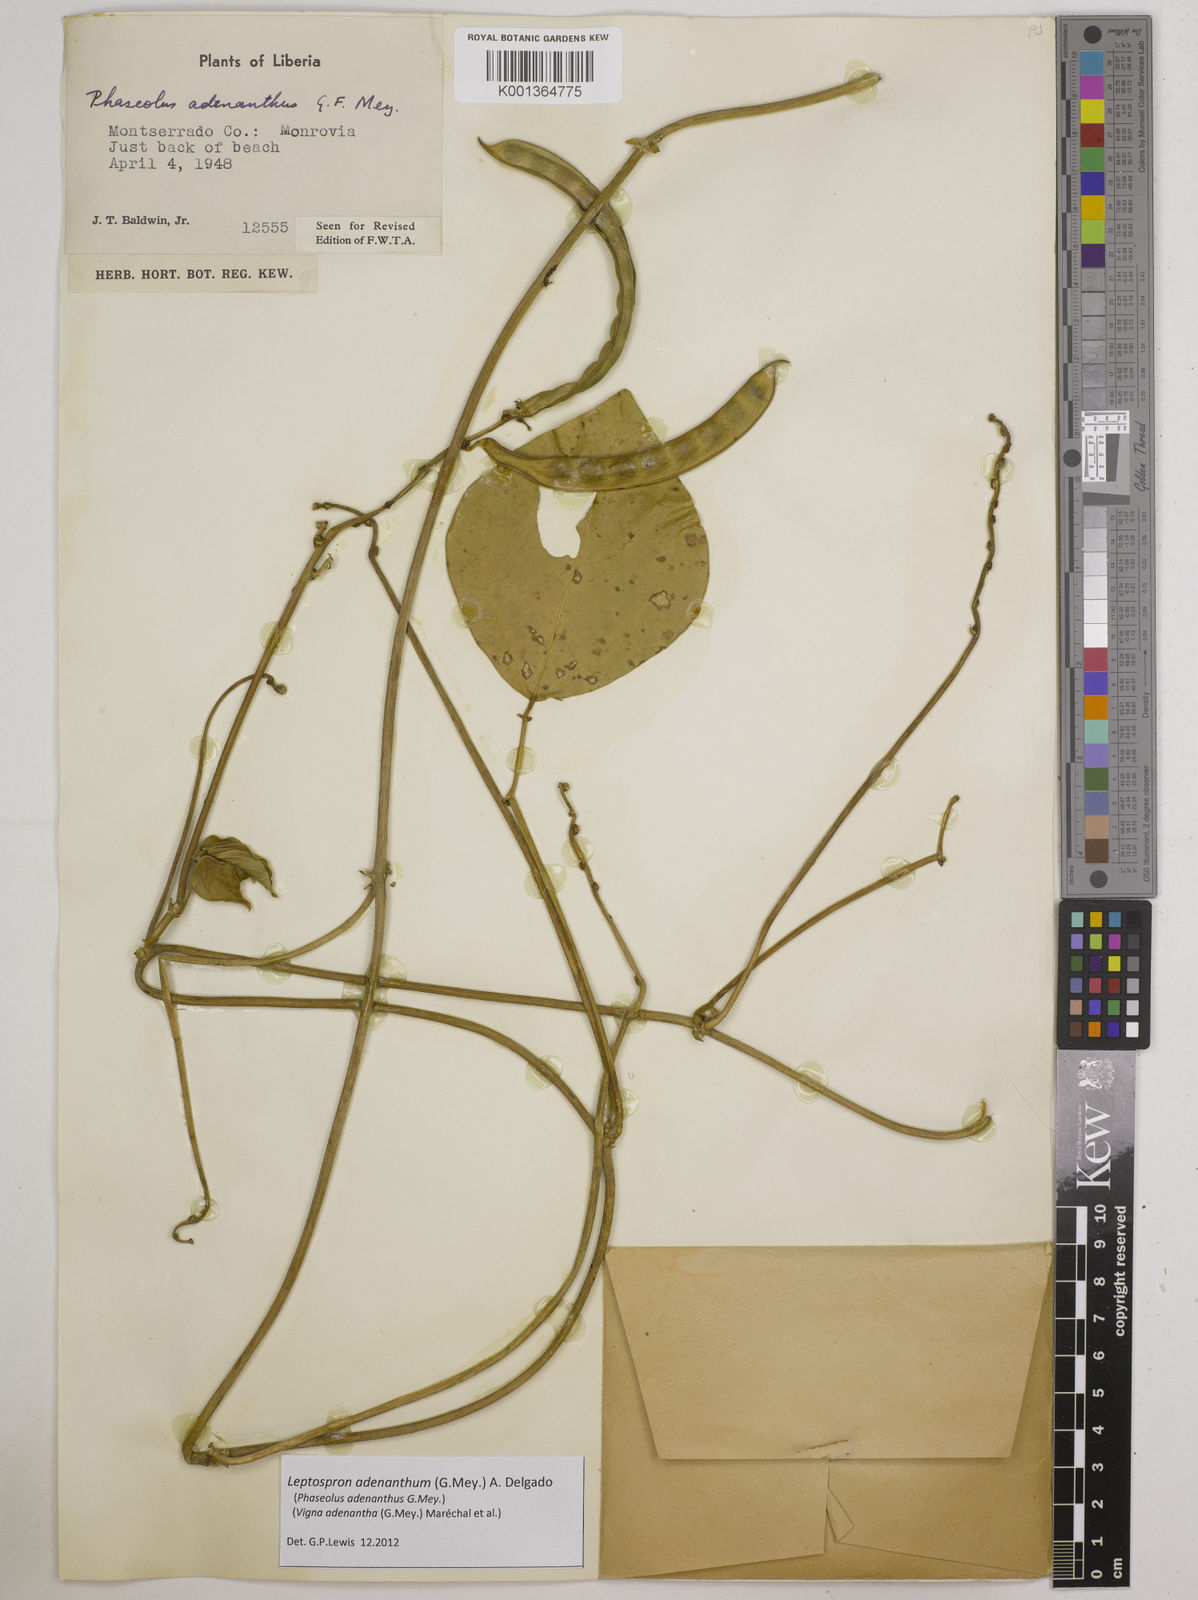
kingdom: Plantae
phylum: Tracheophyta
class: Magnoliopsida
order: Fabales
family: Fabaceae
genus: Leptospron
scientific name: Leptospron adenanthum
